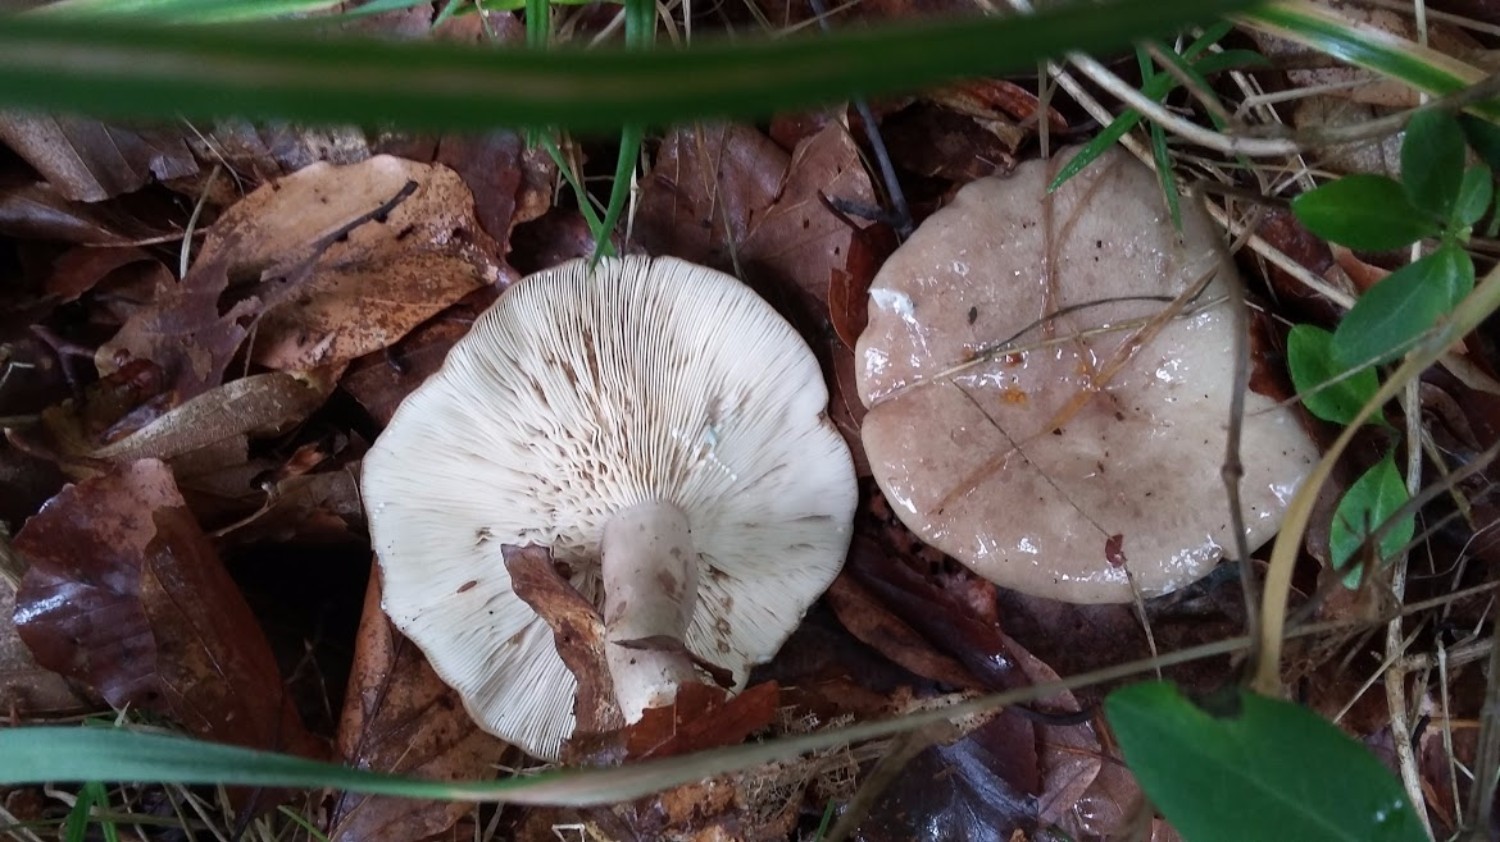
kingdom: Fungi
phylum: Basidiomycota
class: Agaricomycetes
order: Russulales
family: Russulaceae
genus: Lactarius
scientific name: Lactarius blennius
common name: dråbeplettet mælkehat
